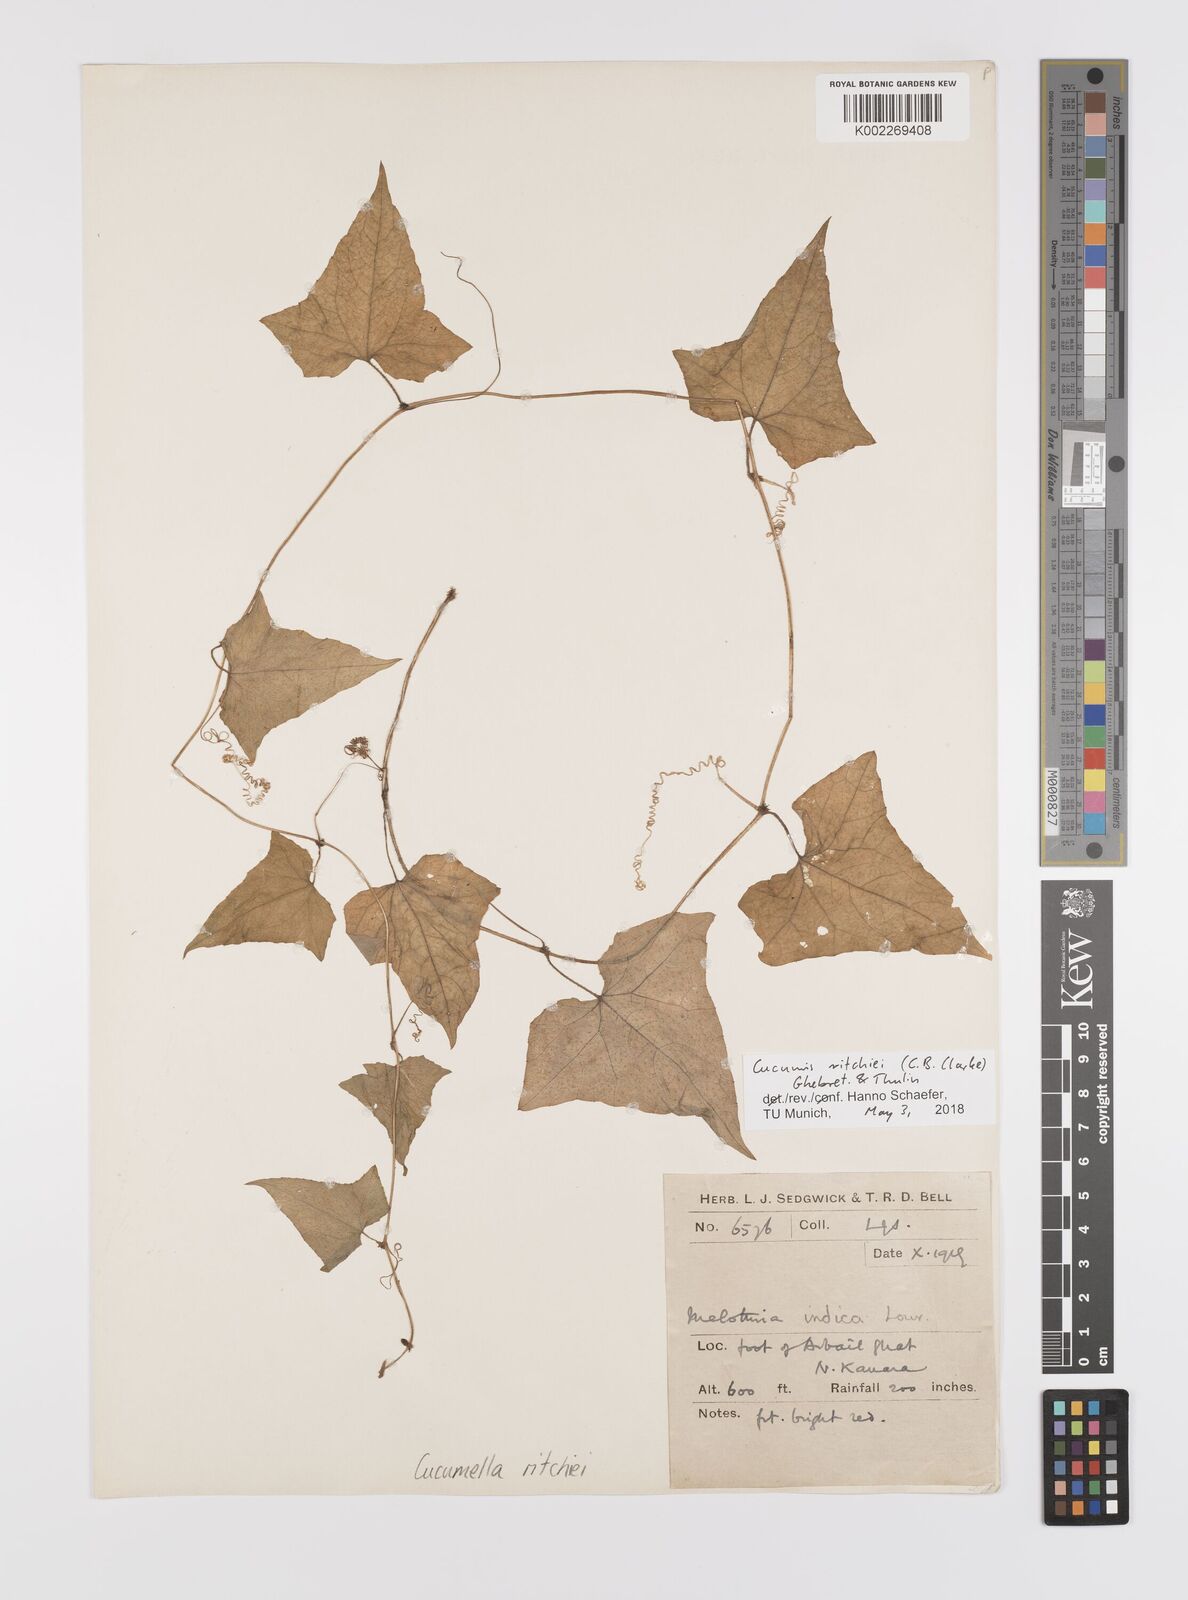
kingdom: Plantae
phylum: Tracheophyta
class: Magnoliopsida
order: Cucurbitales
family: Cucurbitaceae
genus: Cucumis
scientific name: Cucumis indicus
